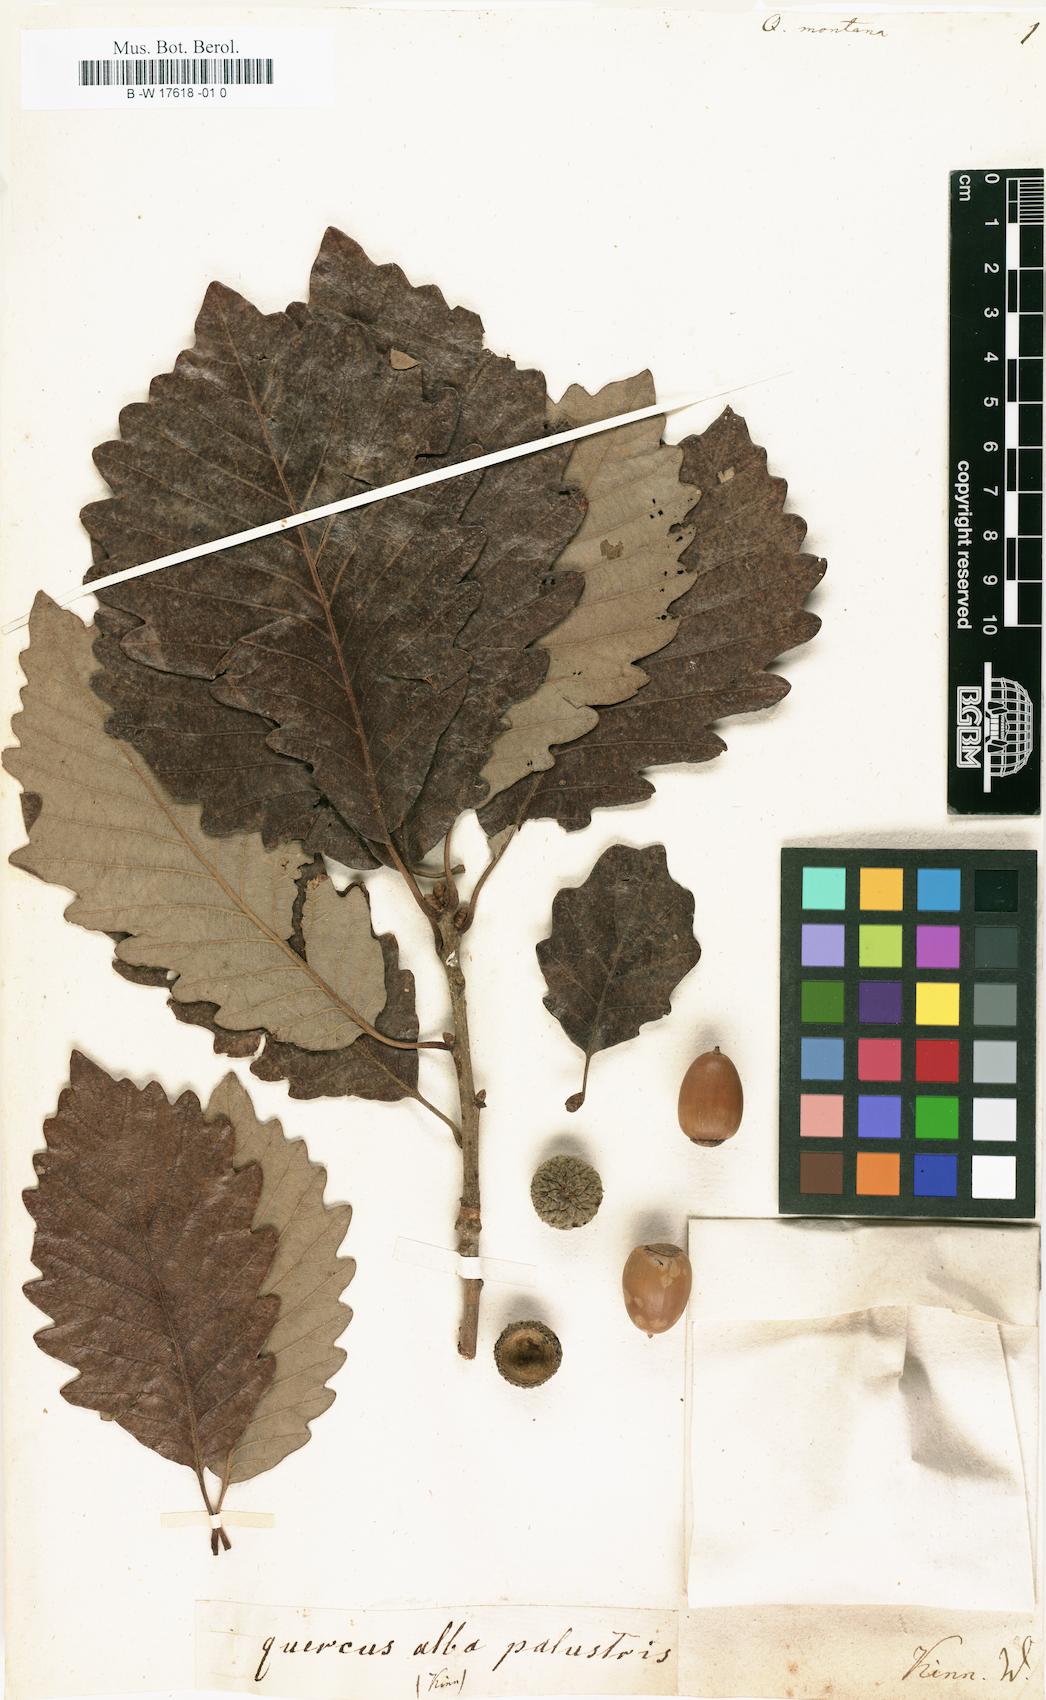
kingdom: Plantae
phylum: Tracheophyta
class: Magnoliopsida
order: Fagales
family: Fagaceae
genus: Quercus
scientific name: Quercus montana
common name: Chestnut oak
